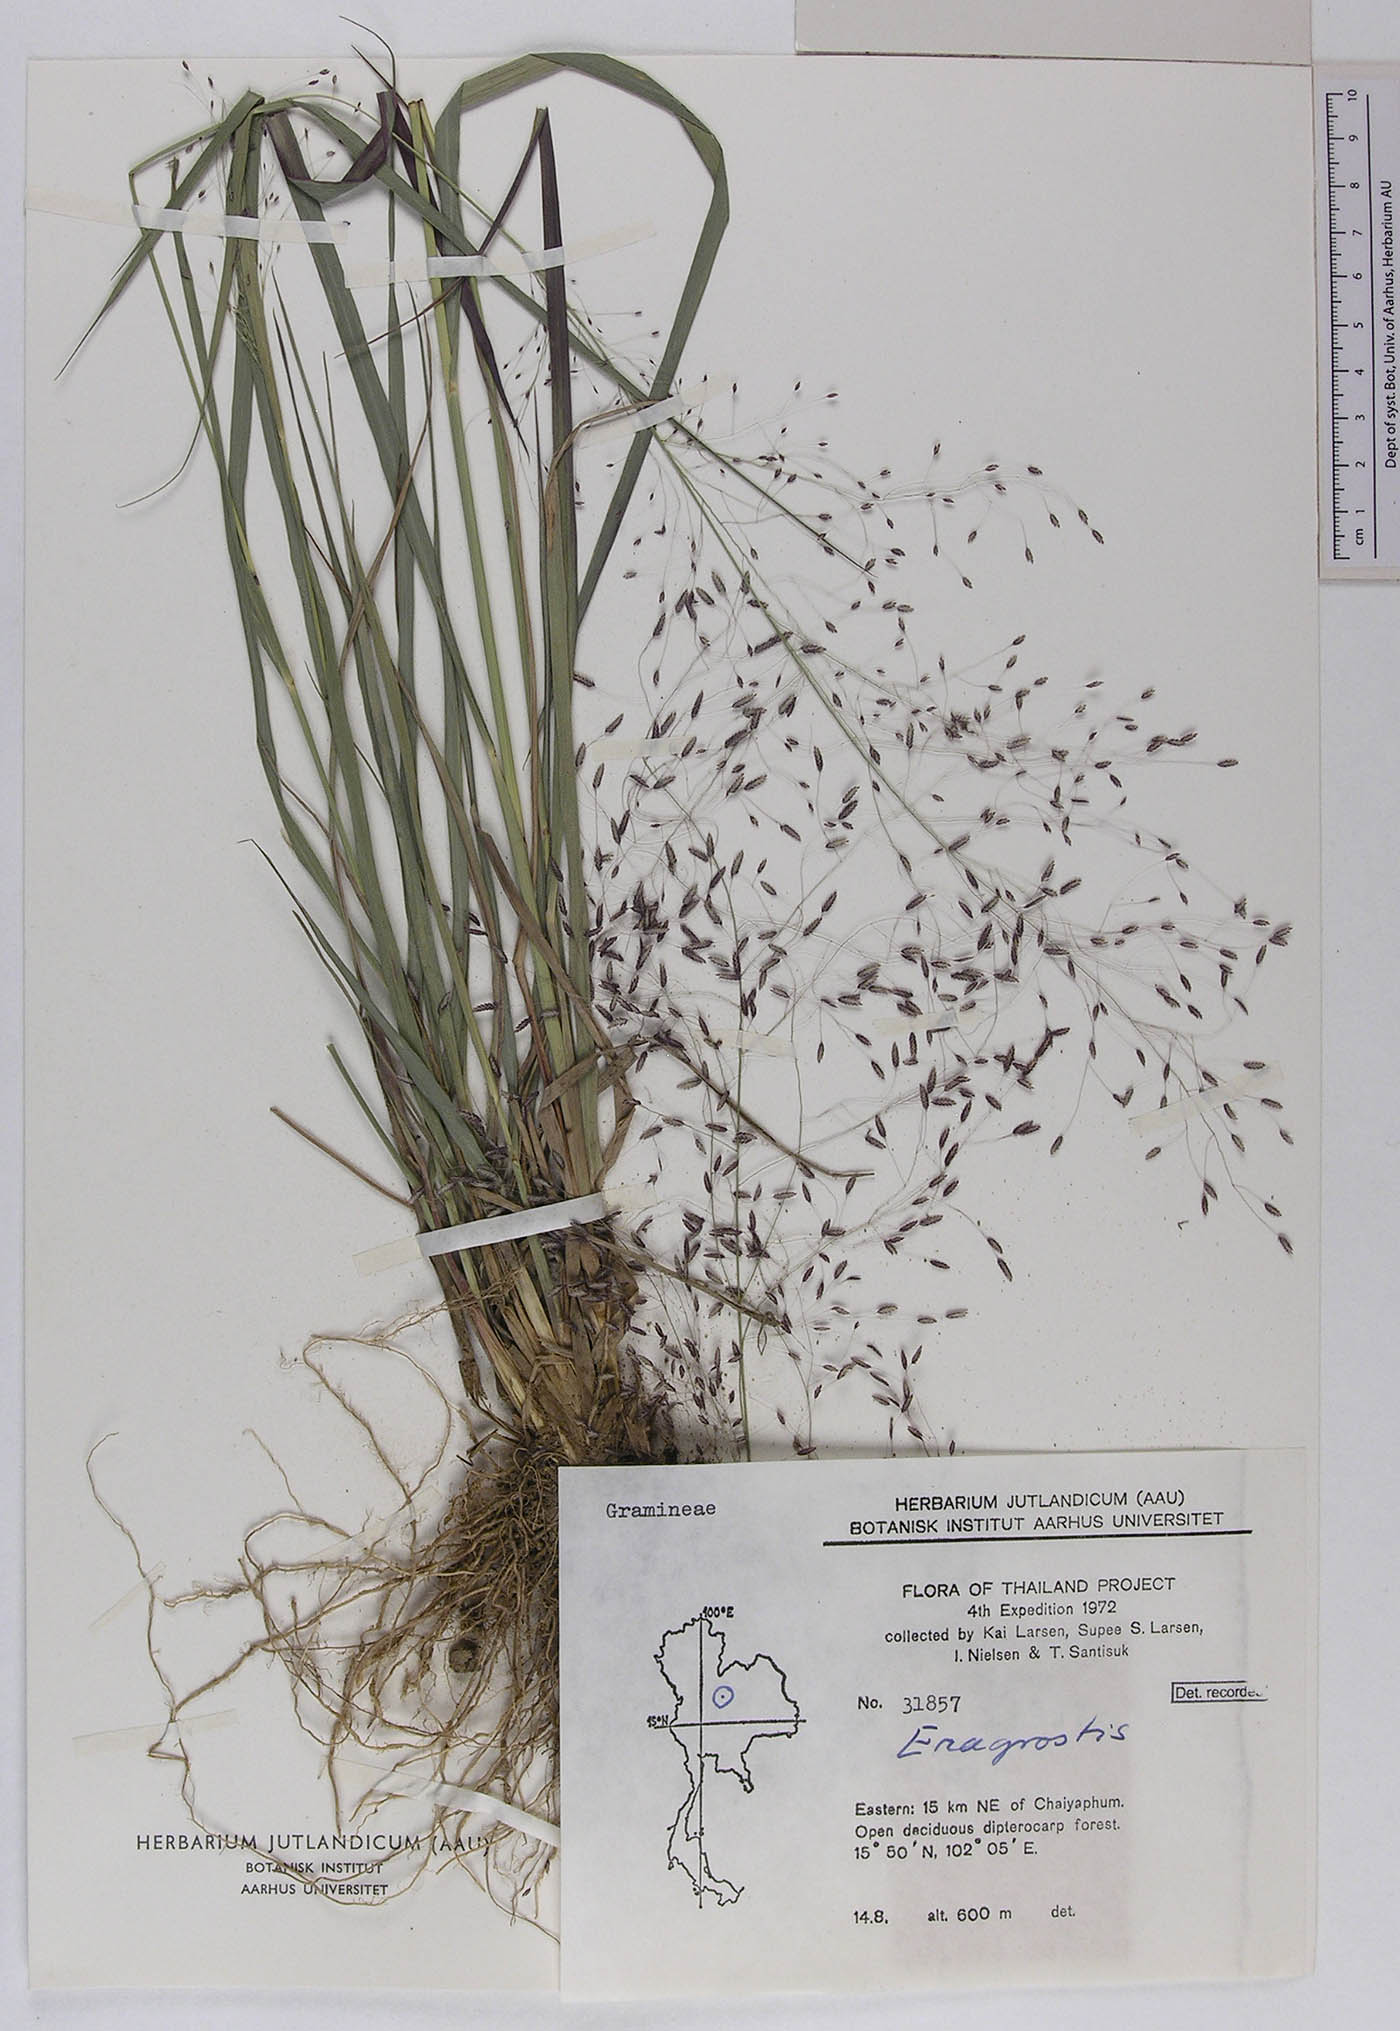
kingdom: Plantae
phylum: Tracheophyta
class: Liliopsida
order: Poales
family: Poaceae
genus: Eragrostis
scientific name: Eragrostis burmanica
